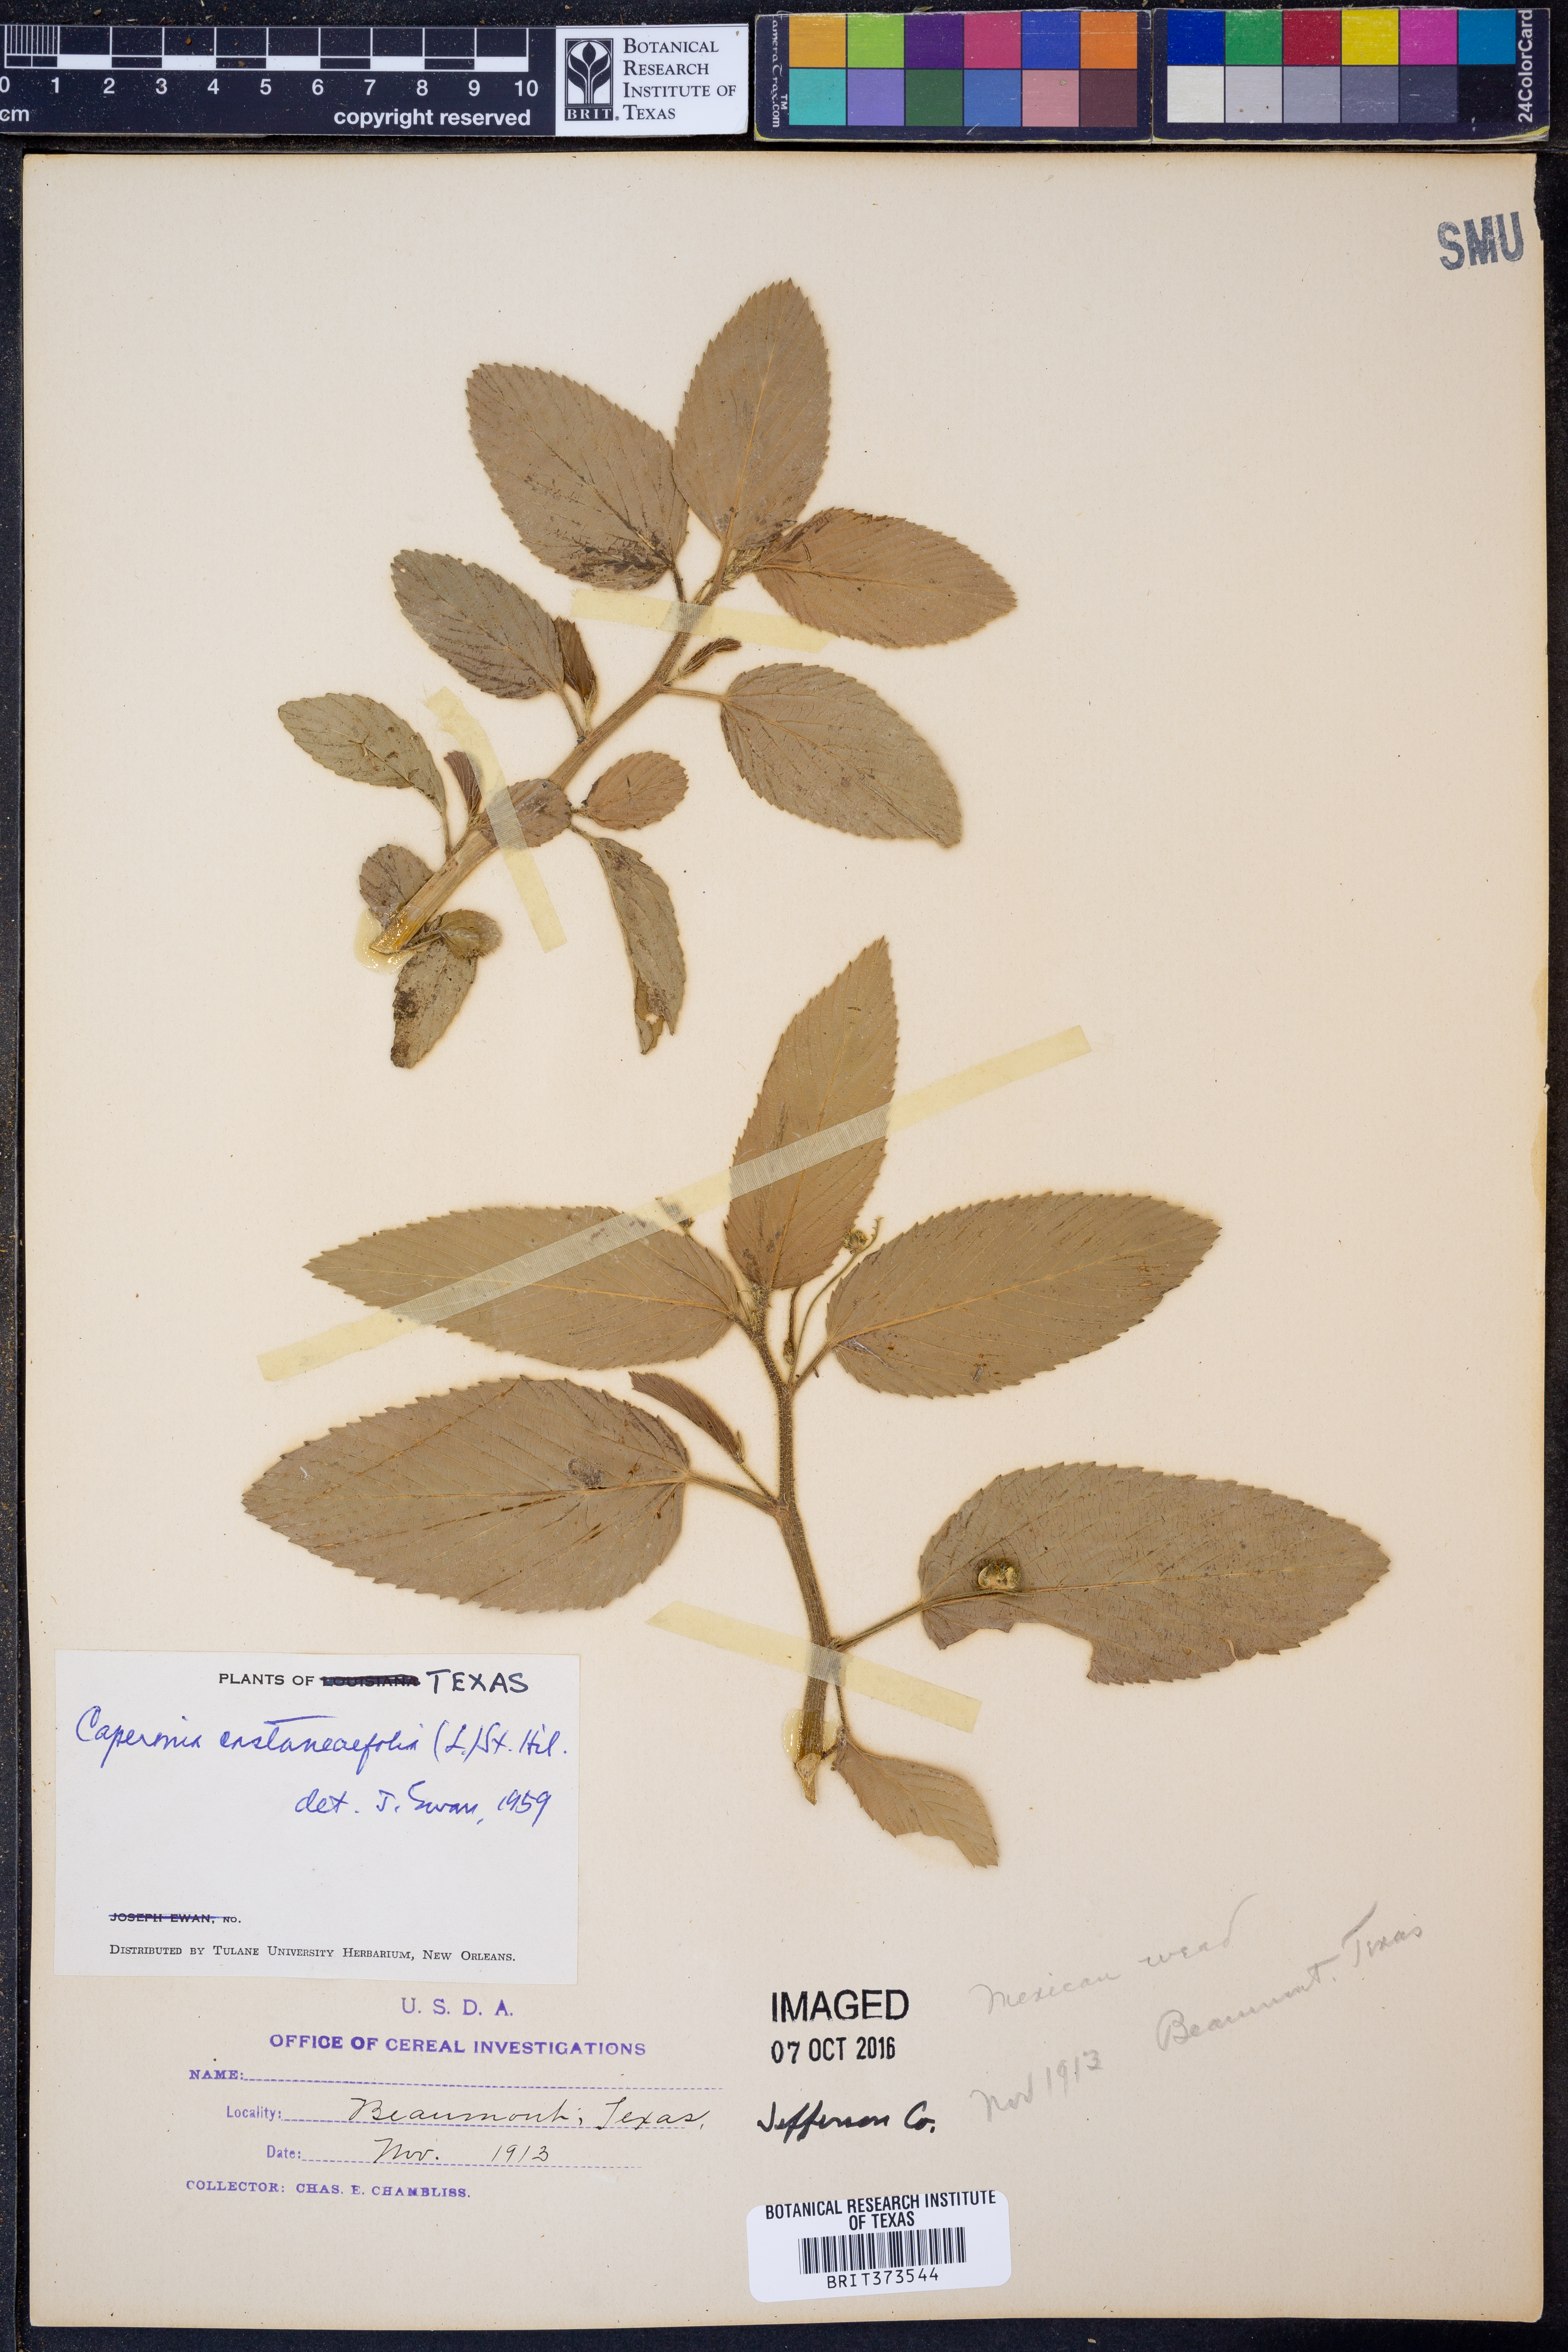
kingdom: Plantae
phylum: Tracheophyta
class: Magnoliopsida
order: Malpighiales
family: Euphorbiaceae
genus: Caperonia
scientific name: Caperonia corchoroides
